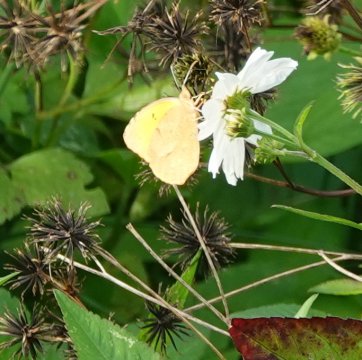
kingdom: Animalia
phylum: Arthropoda
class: Insecta
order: Lepidoptera
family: Pieridae
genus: Abaeis
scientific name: Abaeis nicippe
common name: Sleepy Orange
